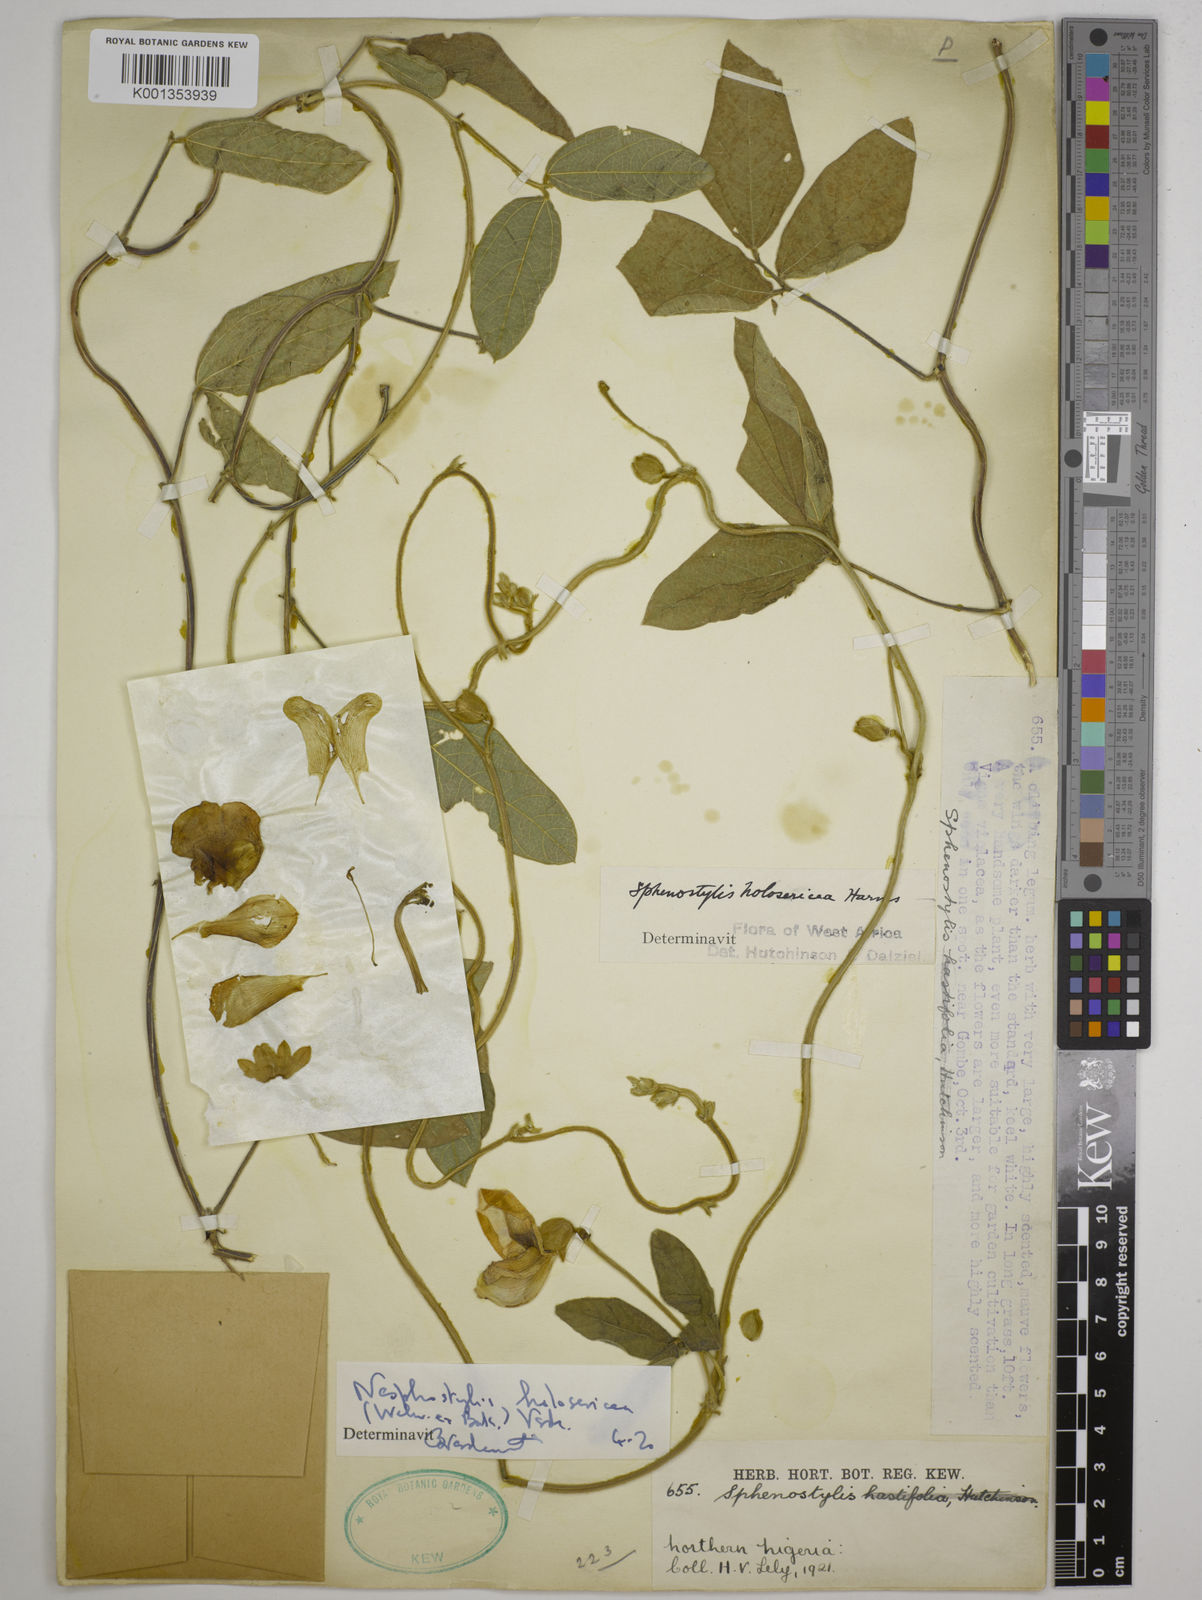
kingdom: Plantae
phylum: Tracheophyta
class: Magnoliopsida
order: Fabales
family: Fabaceae
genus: Nesphostylis
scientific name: Nesphostylis holosericea
